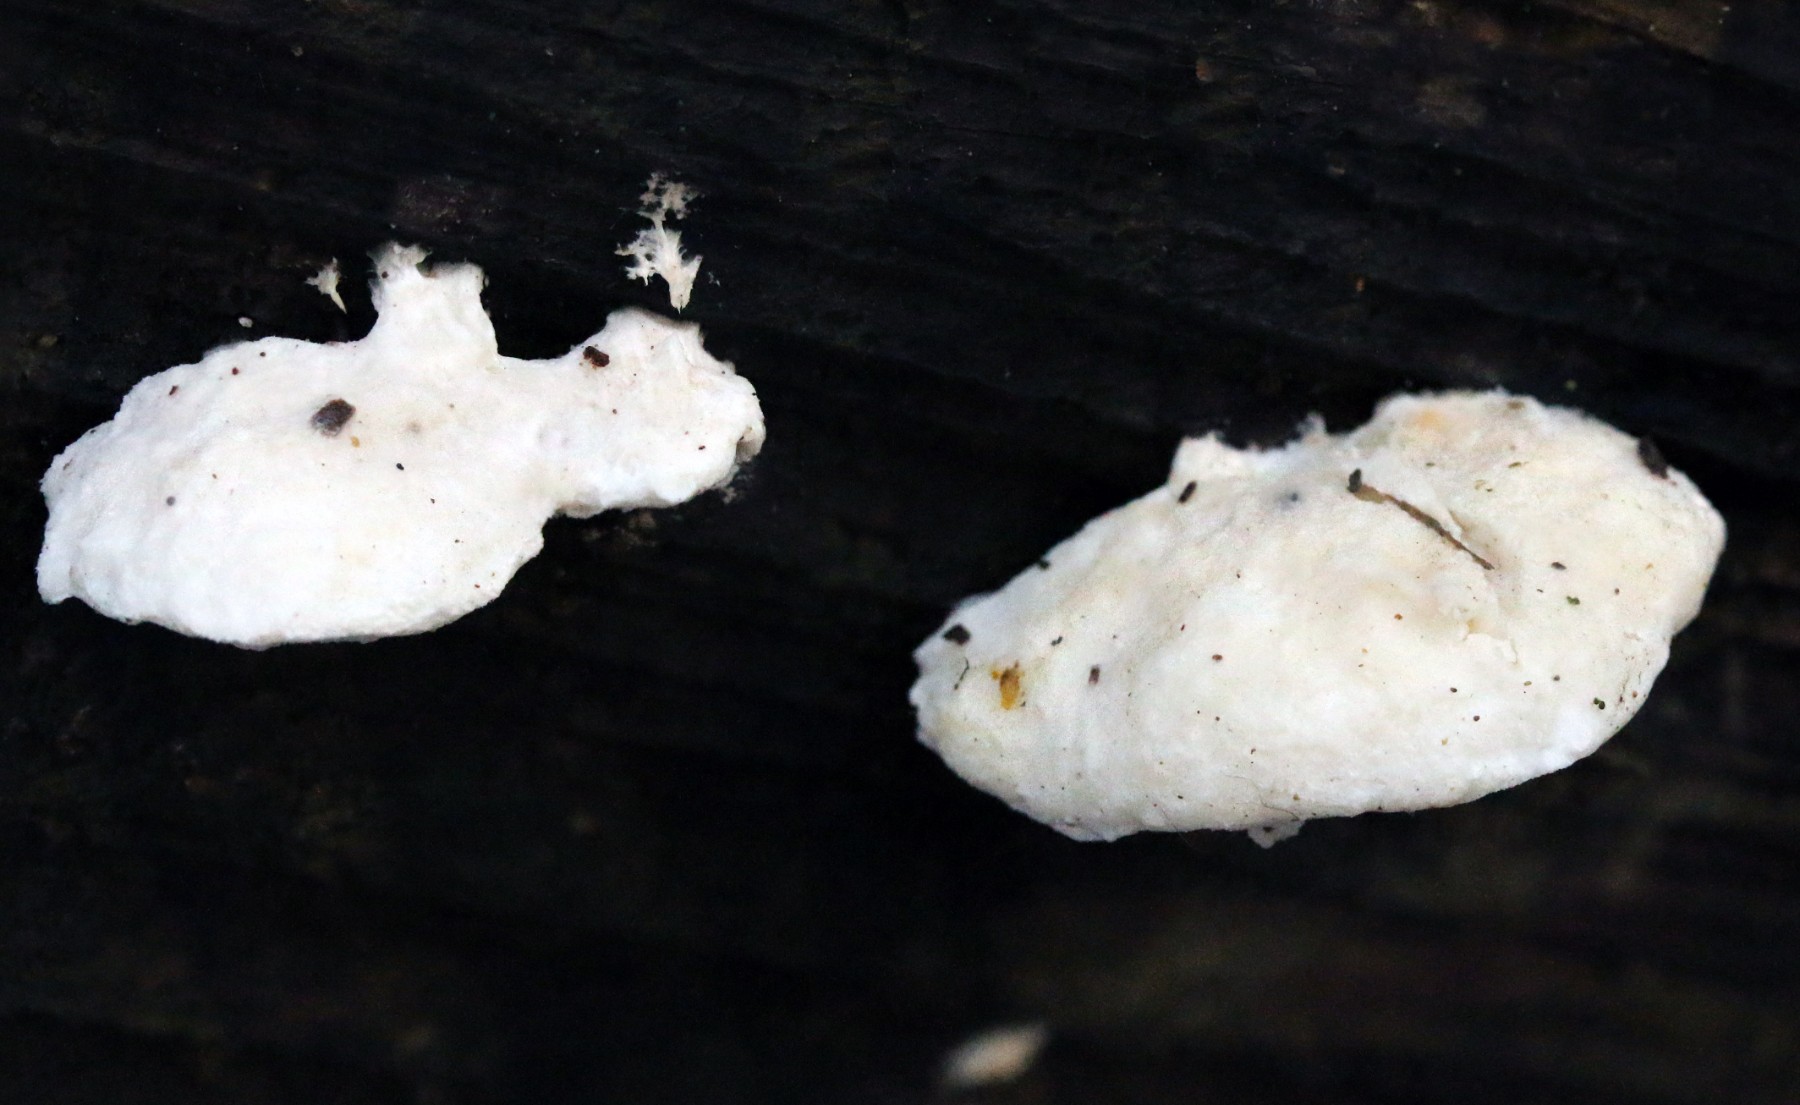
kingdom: Fungi
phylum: Basidiomycota
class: Agaricomycetes
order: Polyporales
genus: Amaropostia
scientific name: Amaropostia stiptica
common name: bitter kødporesvamp
